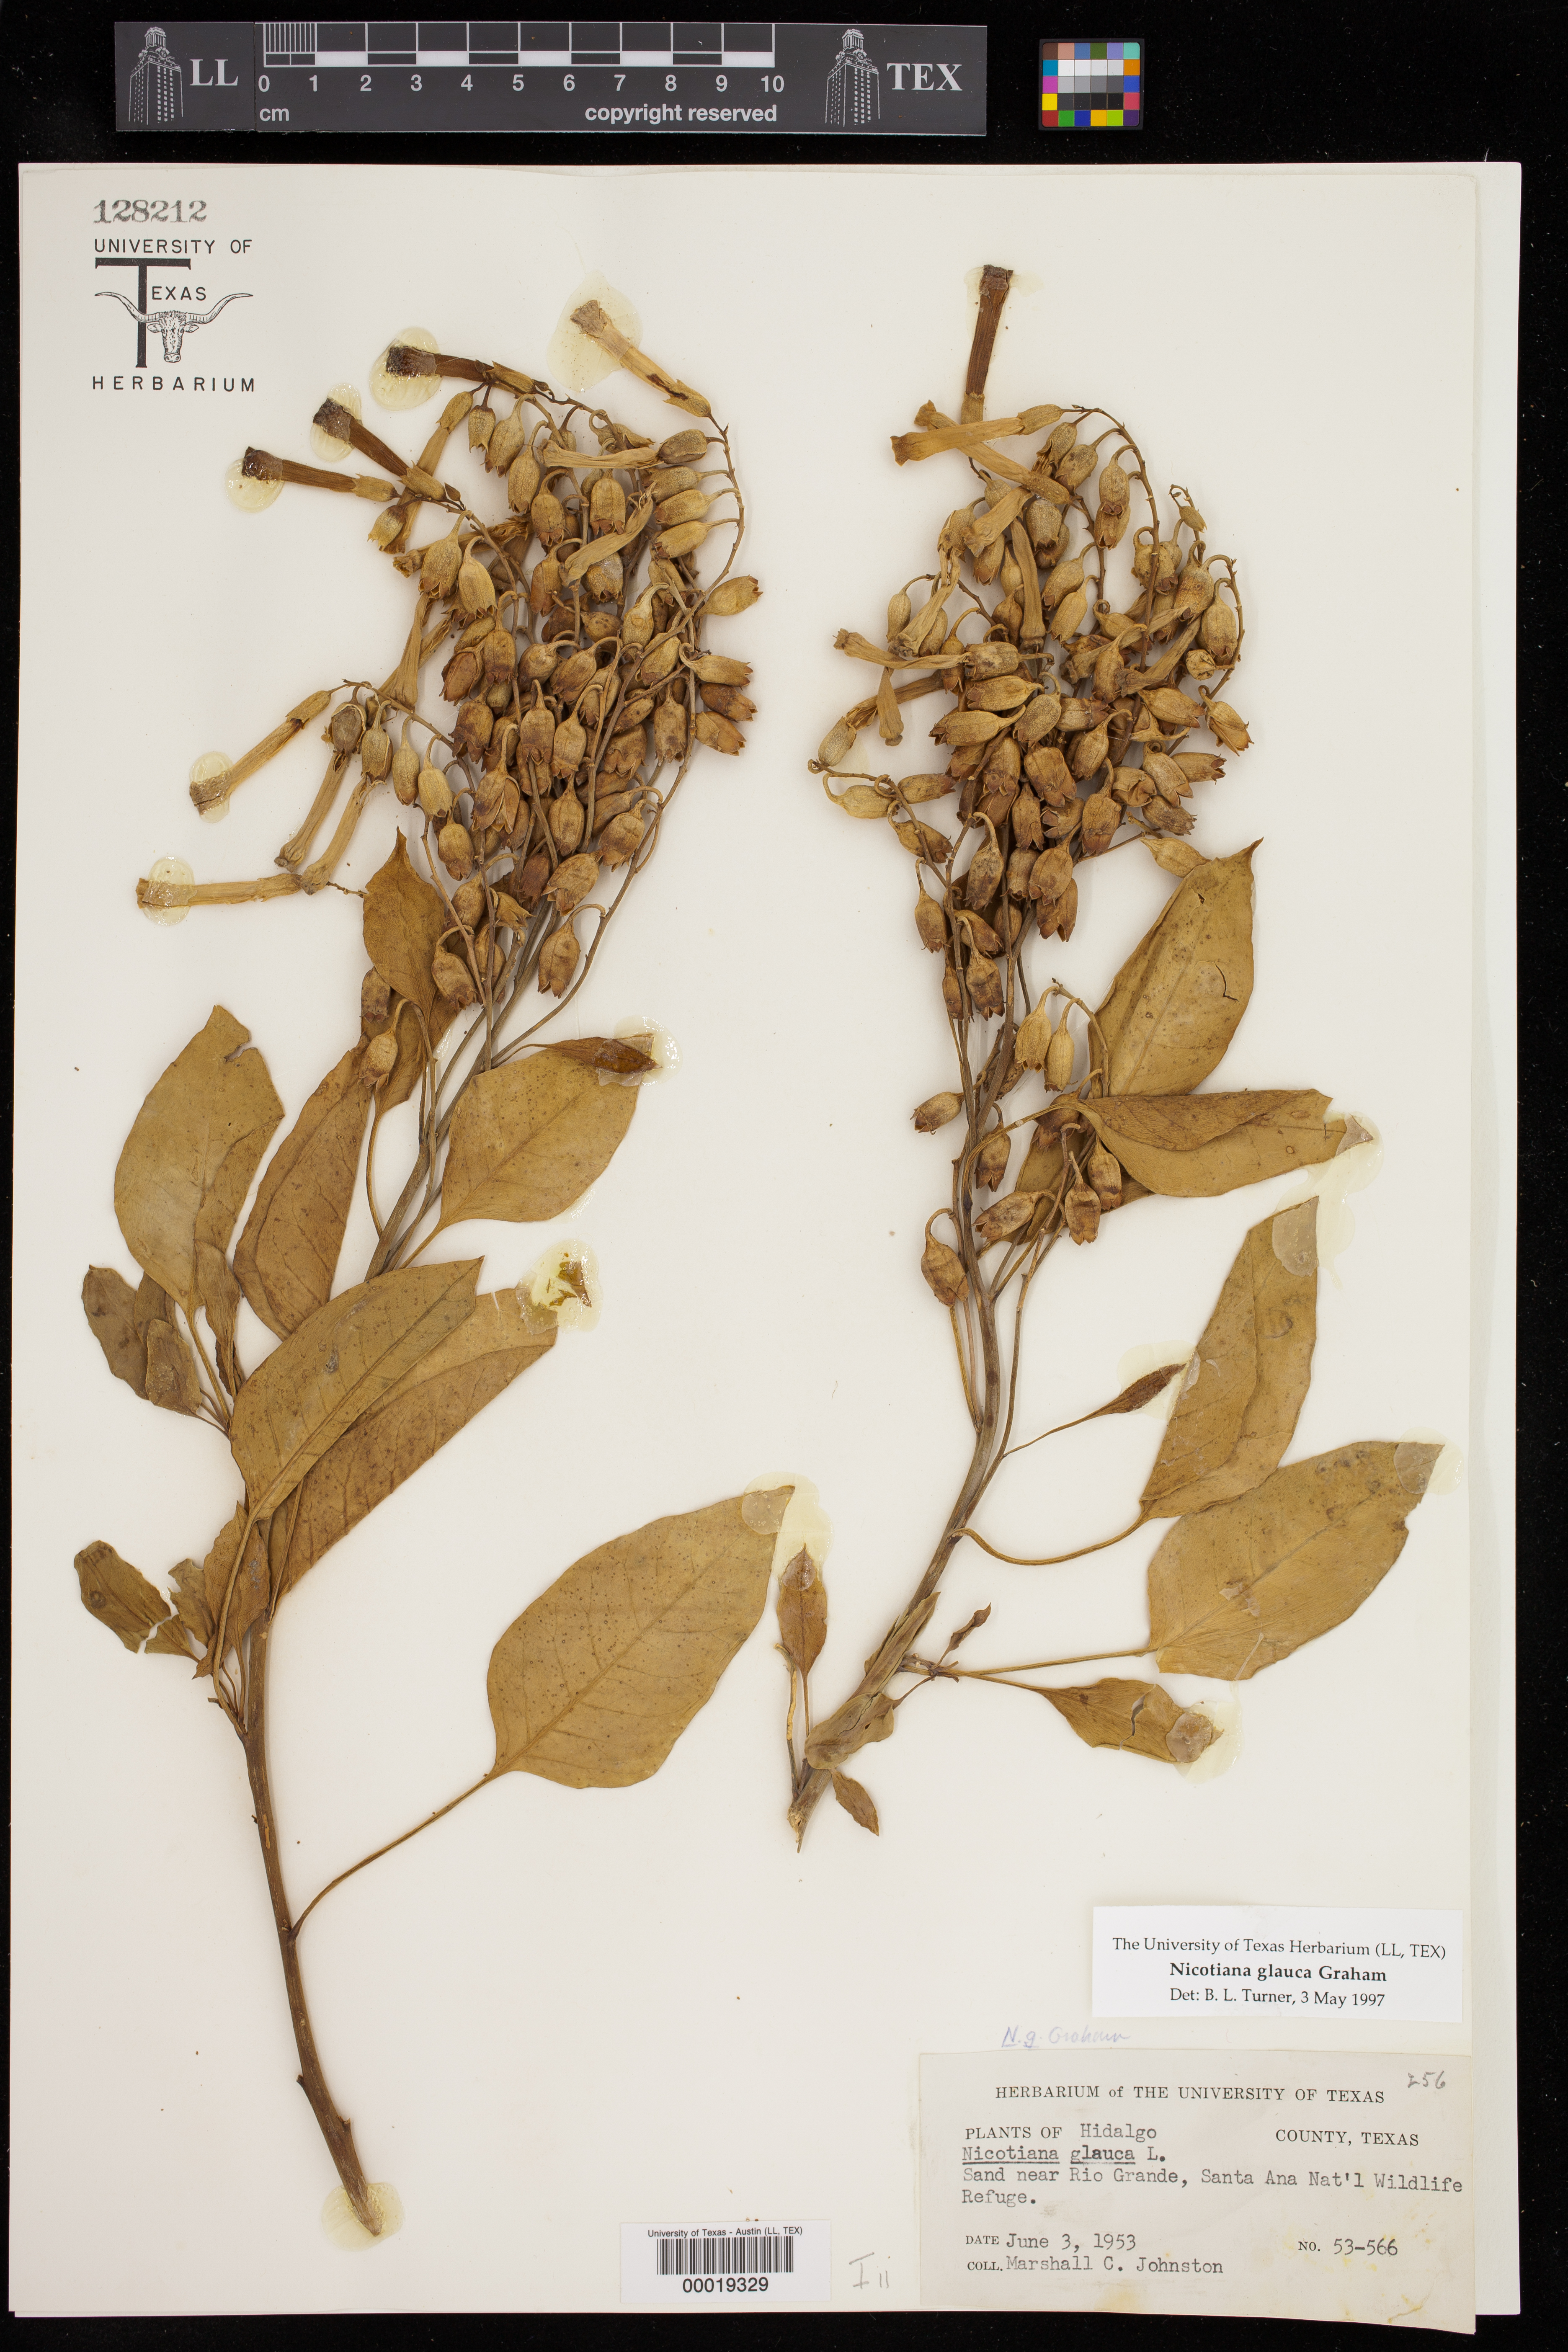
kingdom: Plantae
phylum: Tracheophyta
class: Magnoliopsida
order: Solanales
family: Solanaceae
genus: Nicotiana
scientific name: Nicotiana glauca
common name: Tree tobacco
